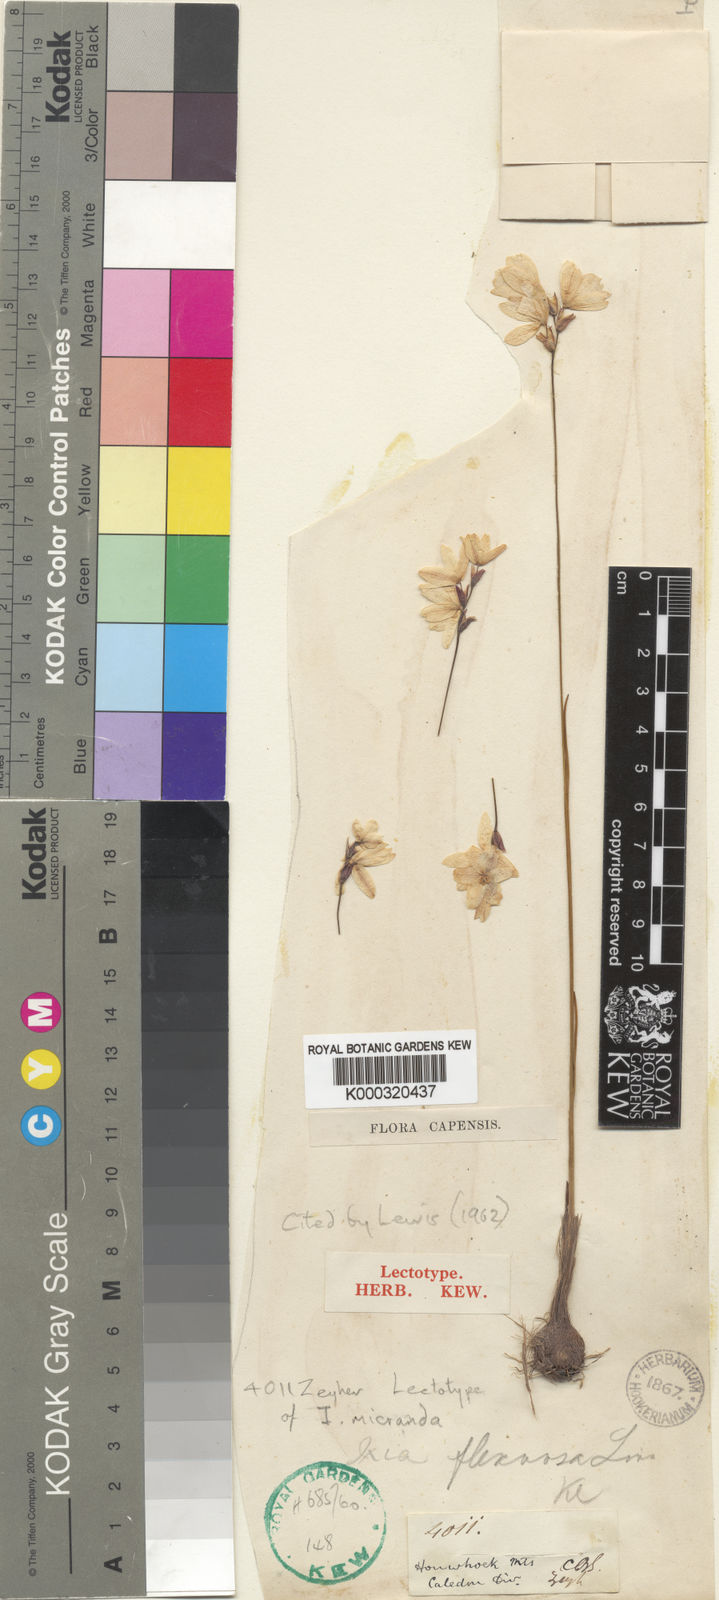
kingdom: Plantae
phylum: Tracheophyta
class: Liliopsida
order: Asparagales
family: Iridaceae
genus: Ixia
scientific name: Ixia micrandra
